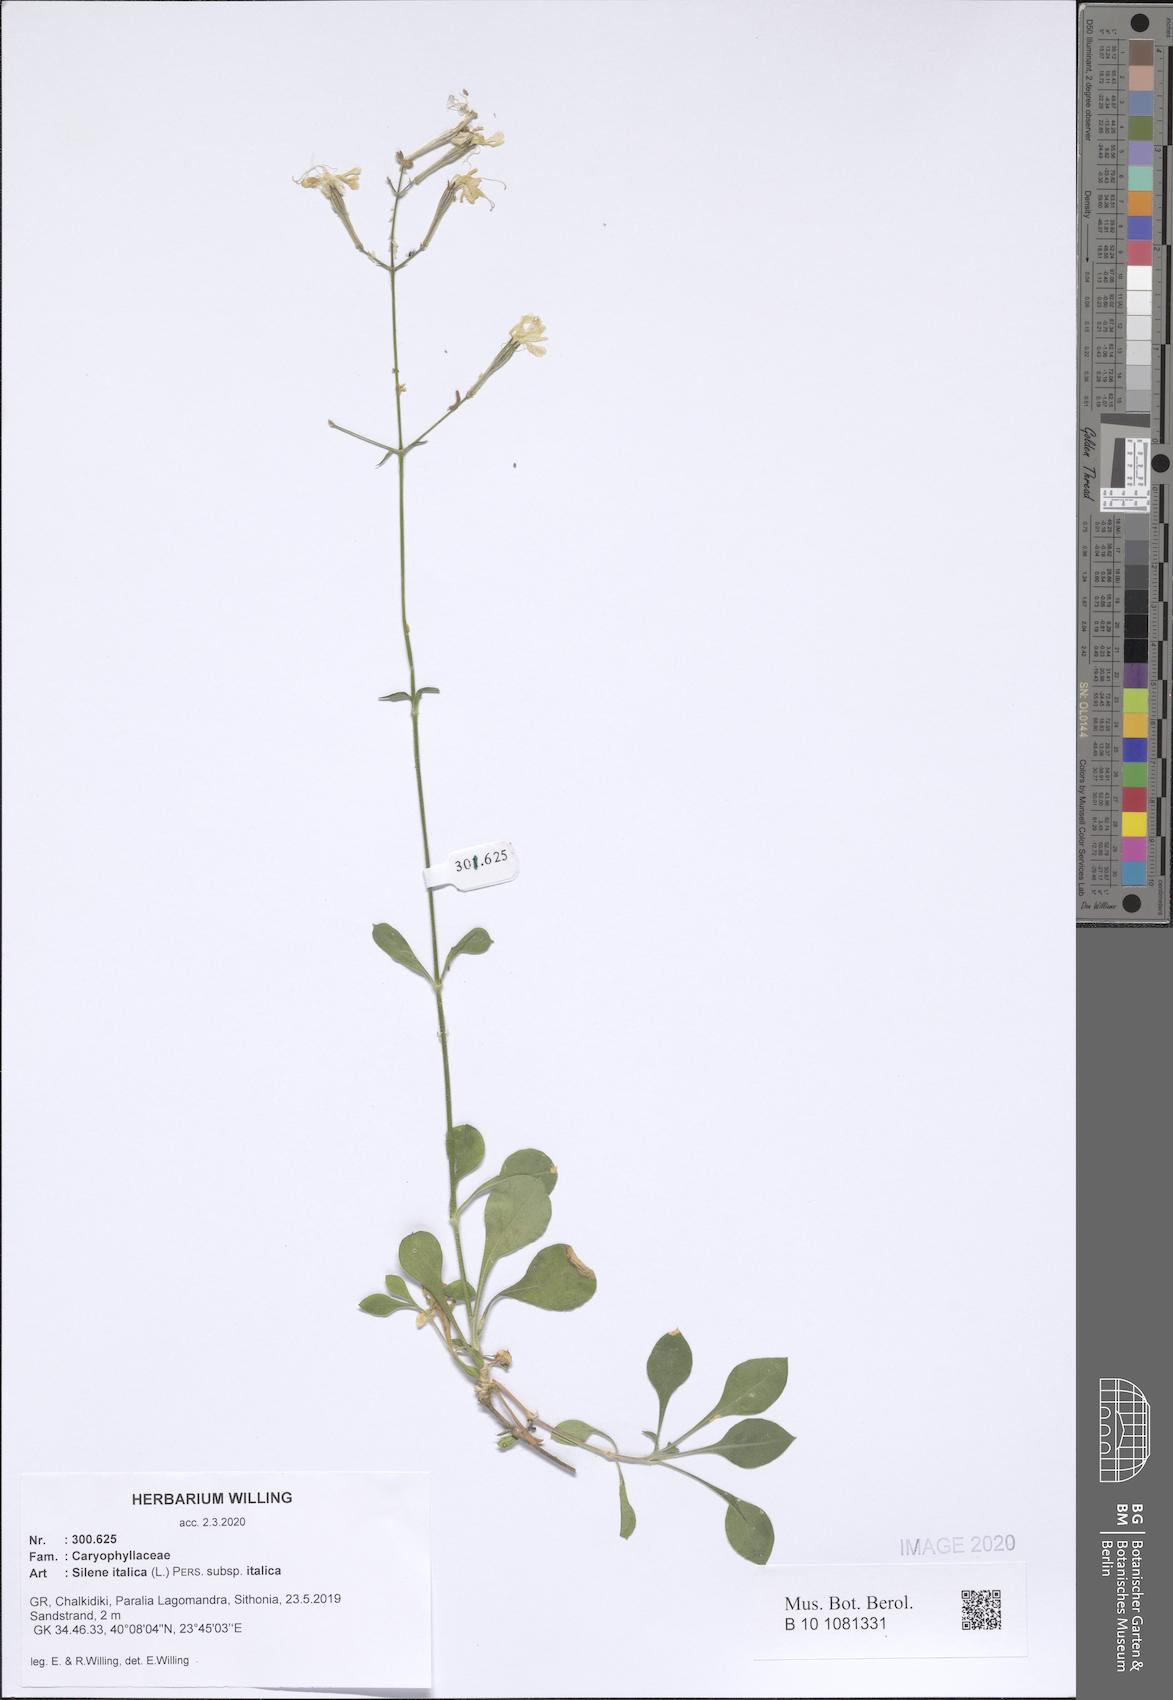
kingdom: Plantae
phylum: Tracheophyta
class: Magnoliopsida
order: Caryophyllales
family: Caryophyllaceae
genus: Silene
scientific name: Silene italica
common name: Italian catchfly
